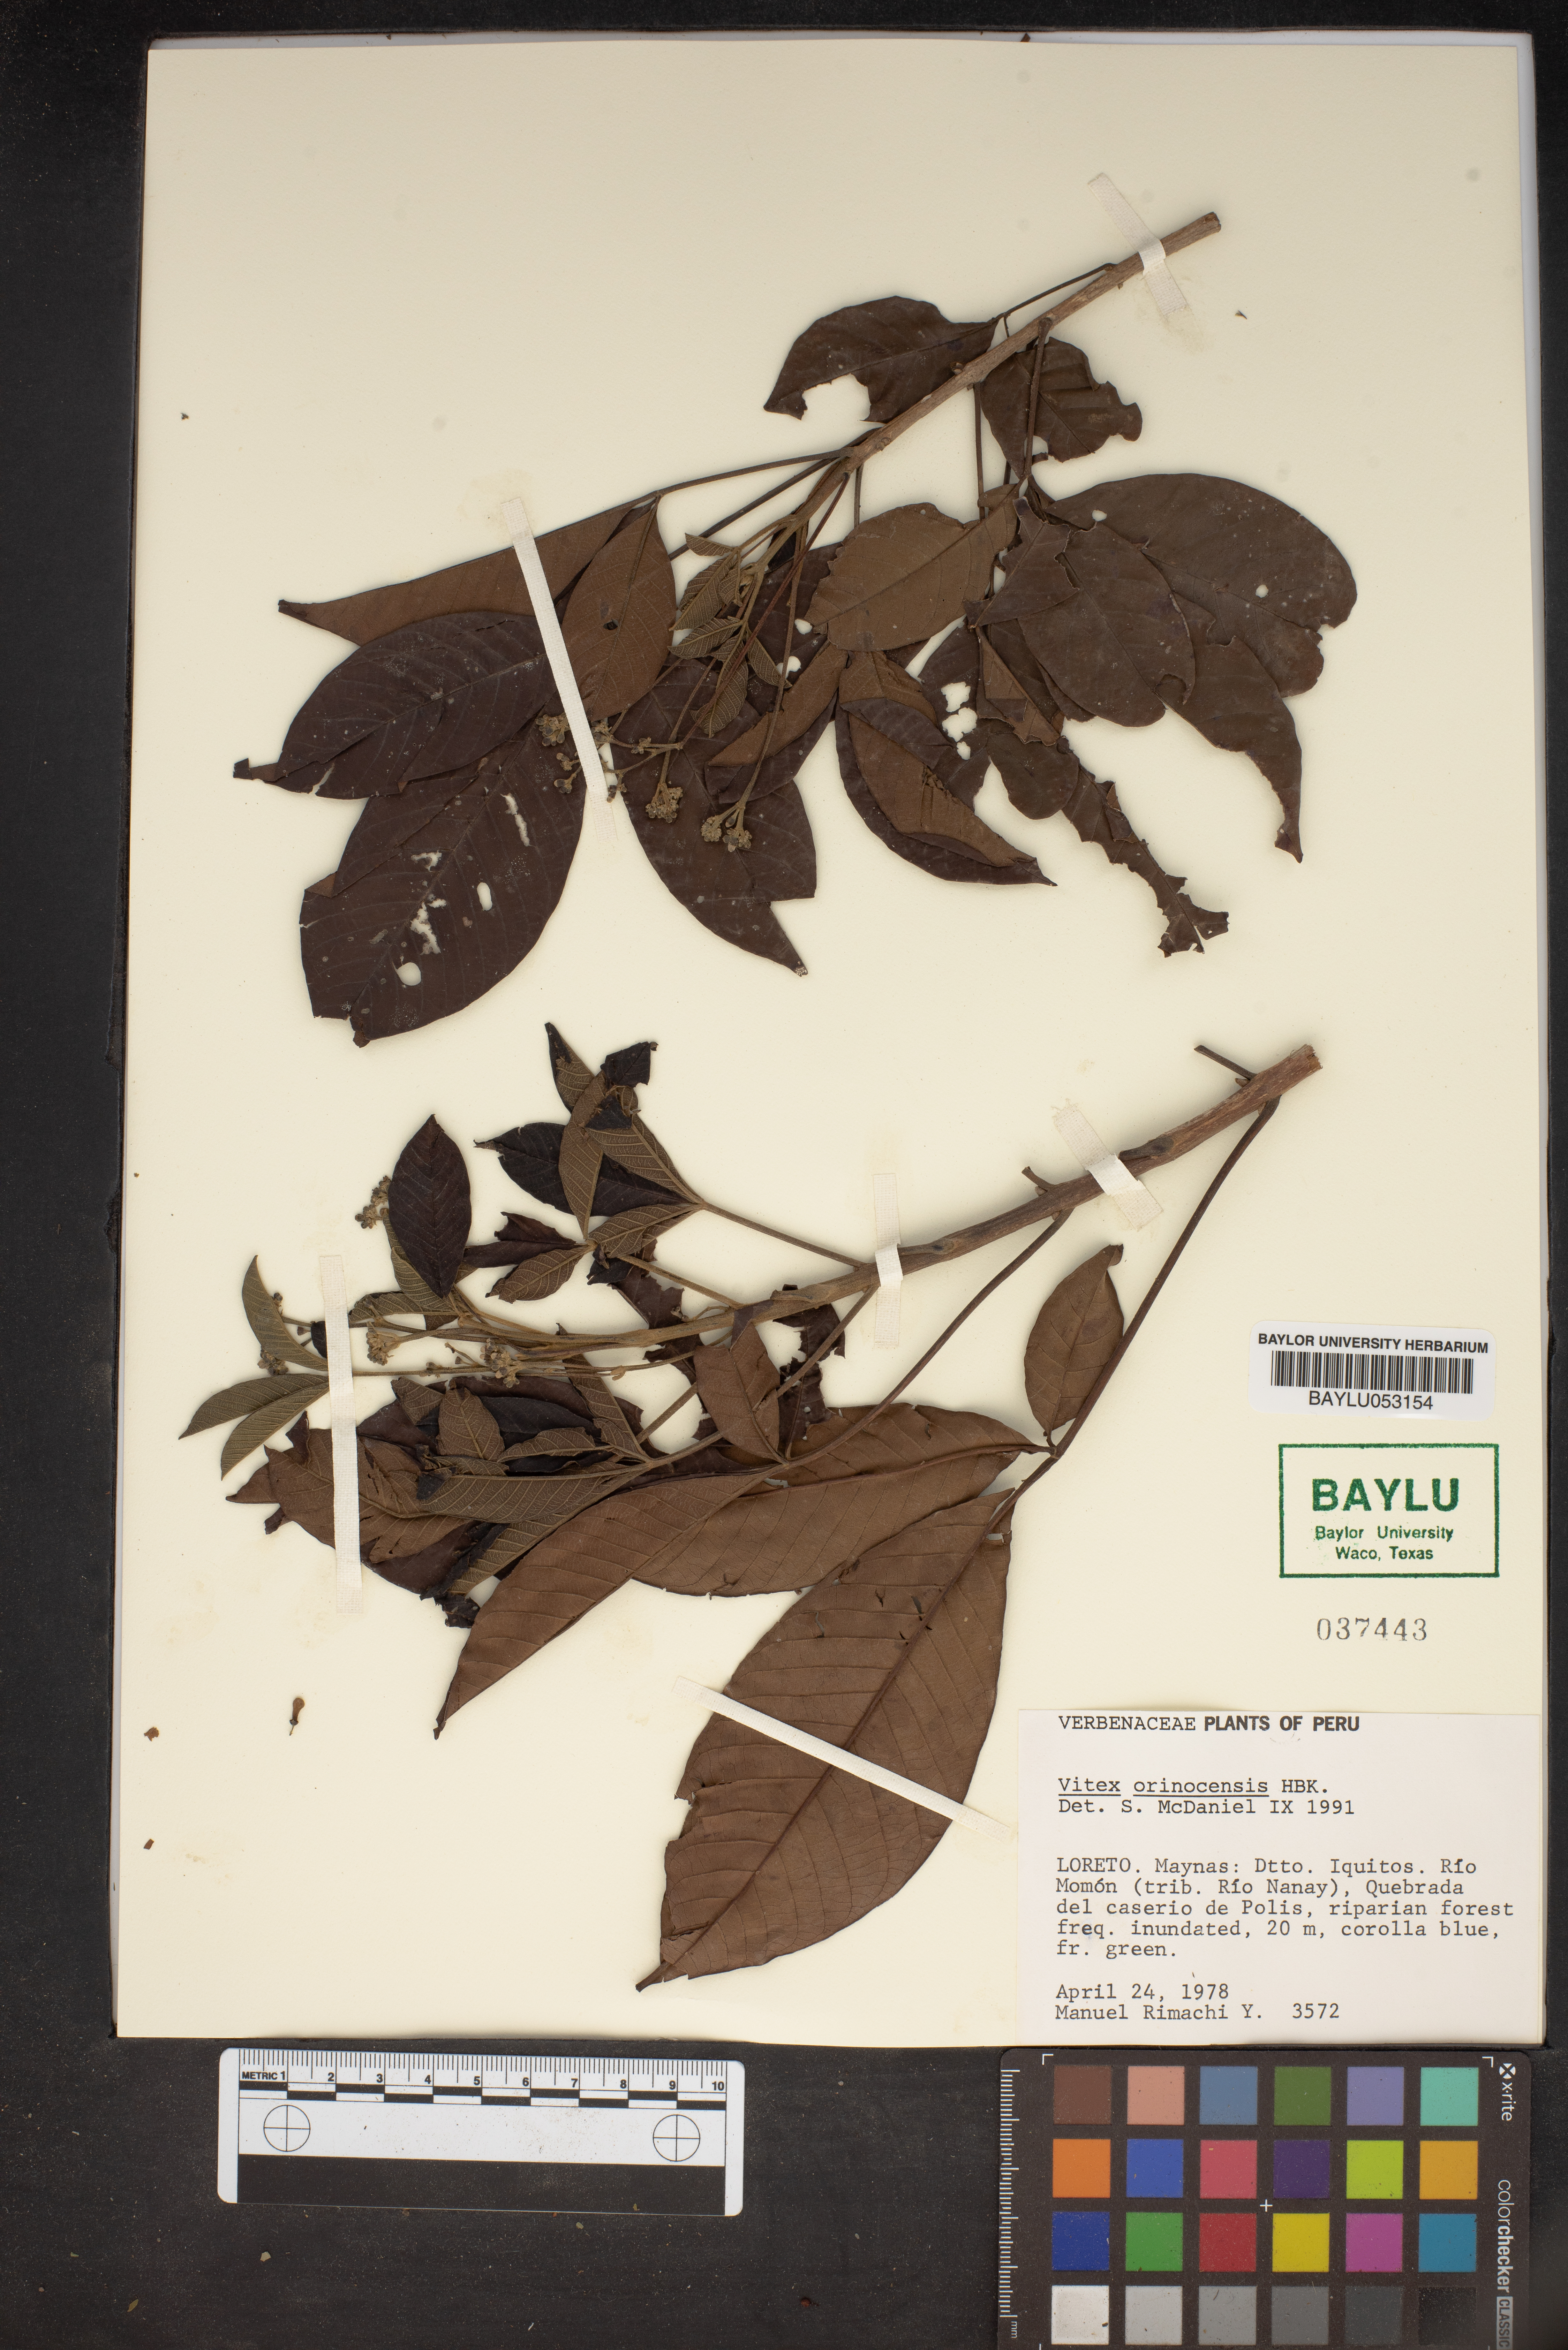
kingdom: Plantae
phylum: Tracheophyta
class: Magnoliopsida
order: Lamiales
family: Lamiaceae
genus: Vitex
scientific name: Vitex orinocensis
